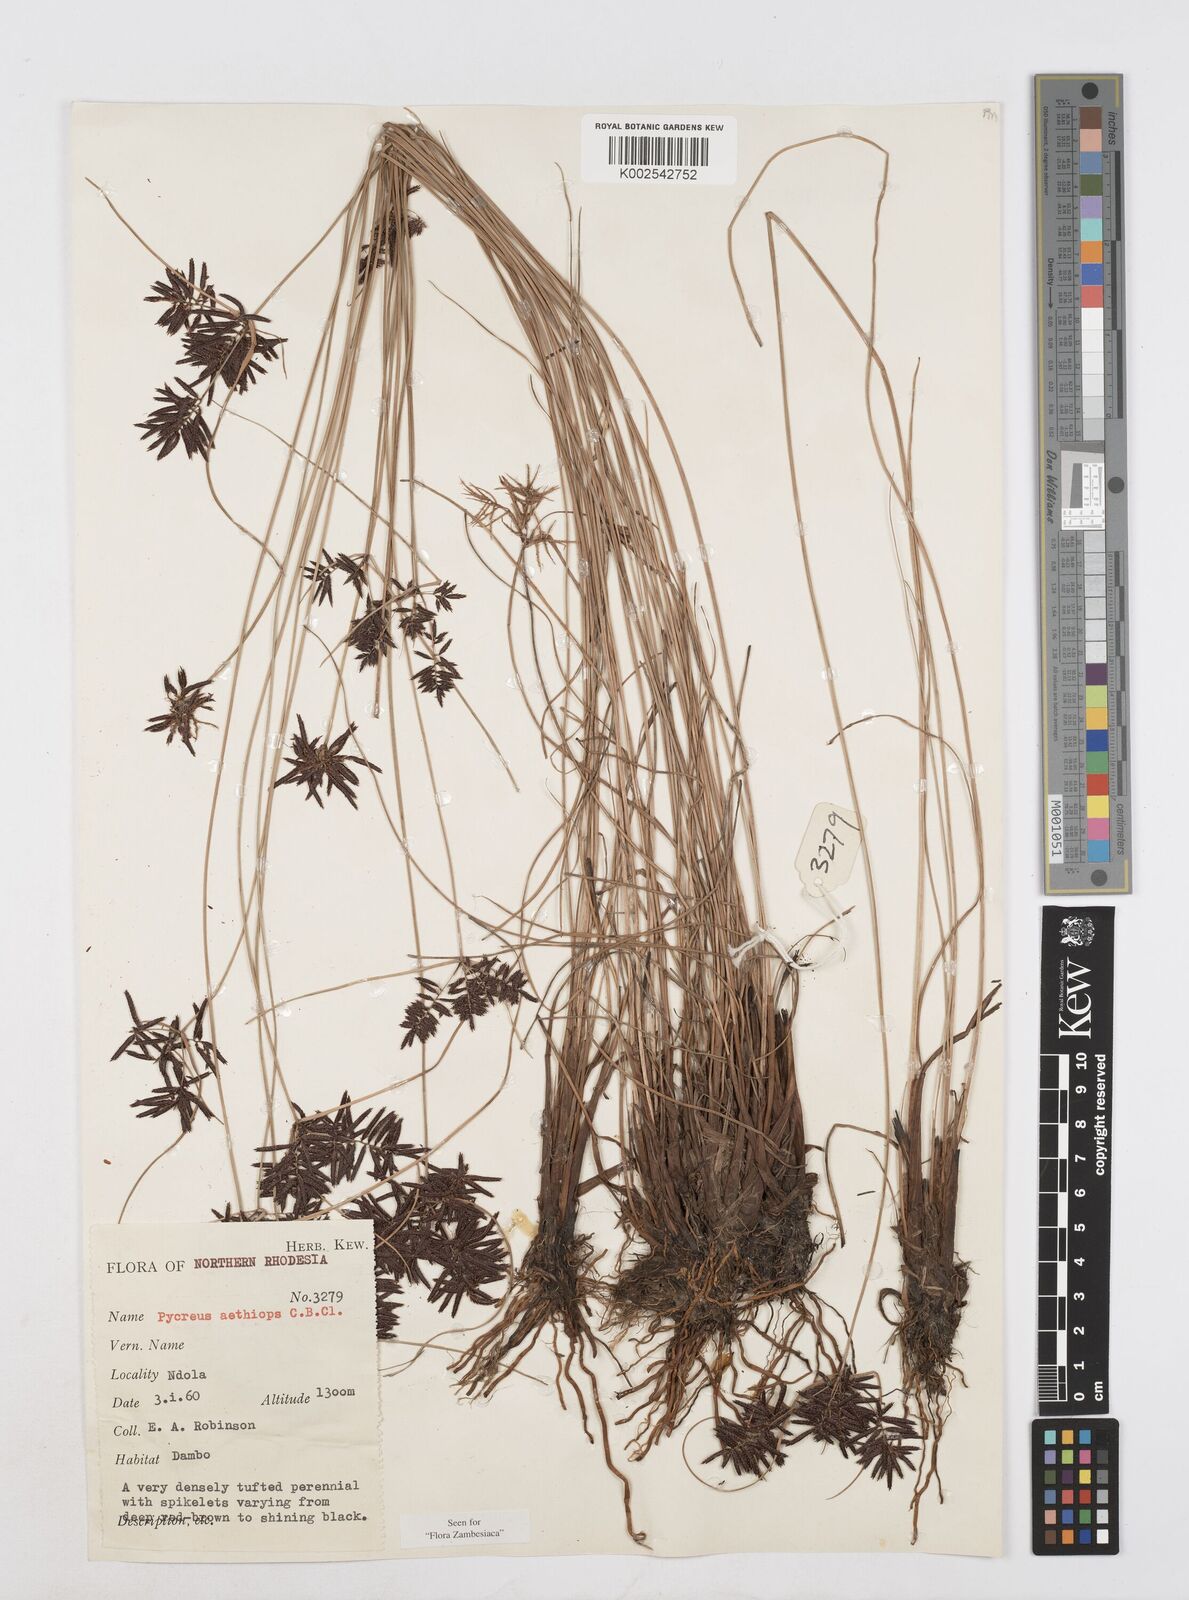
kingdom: Plantae
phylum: Tracheophyta
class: Liliopsida
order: Poales
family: Cyperaceae
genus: Cyperus
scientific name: Cyperus aethiops
